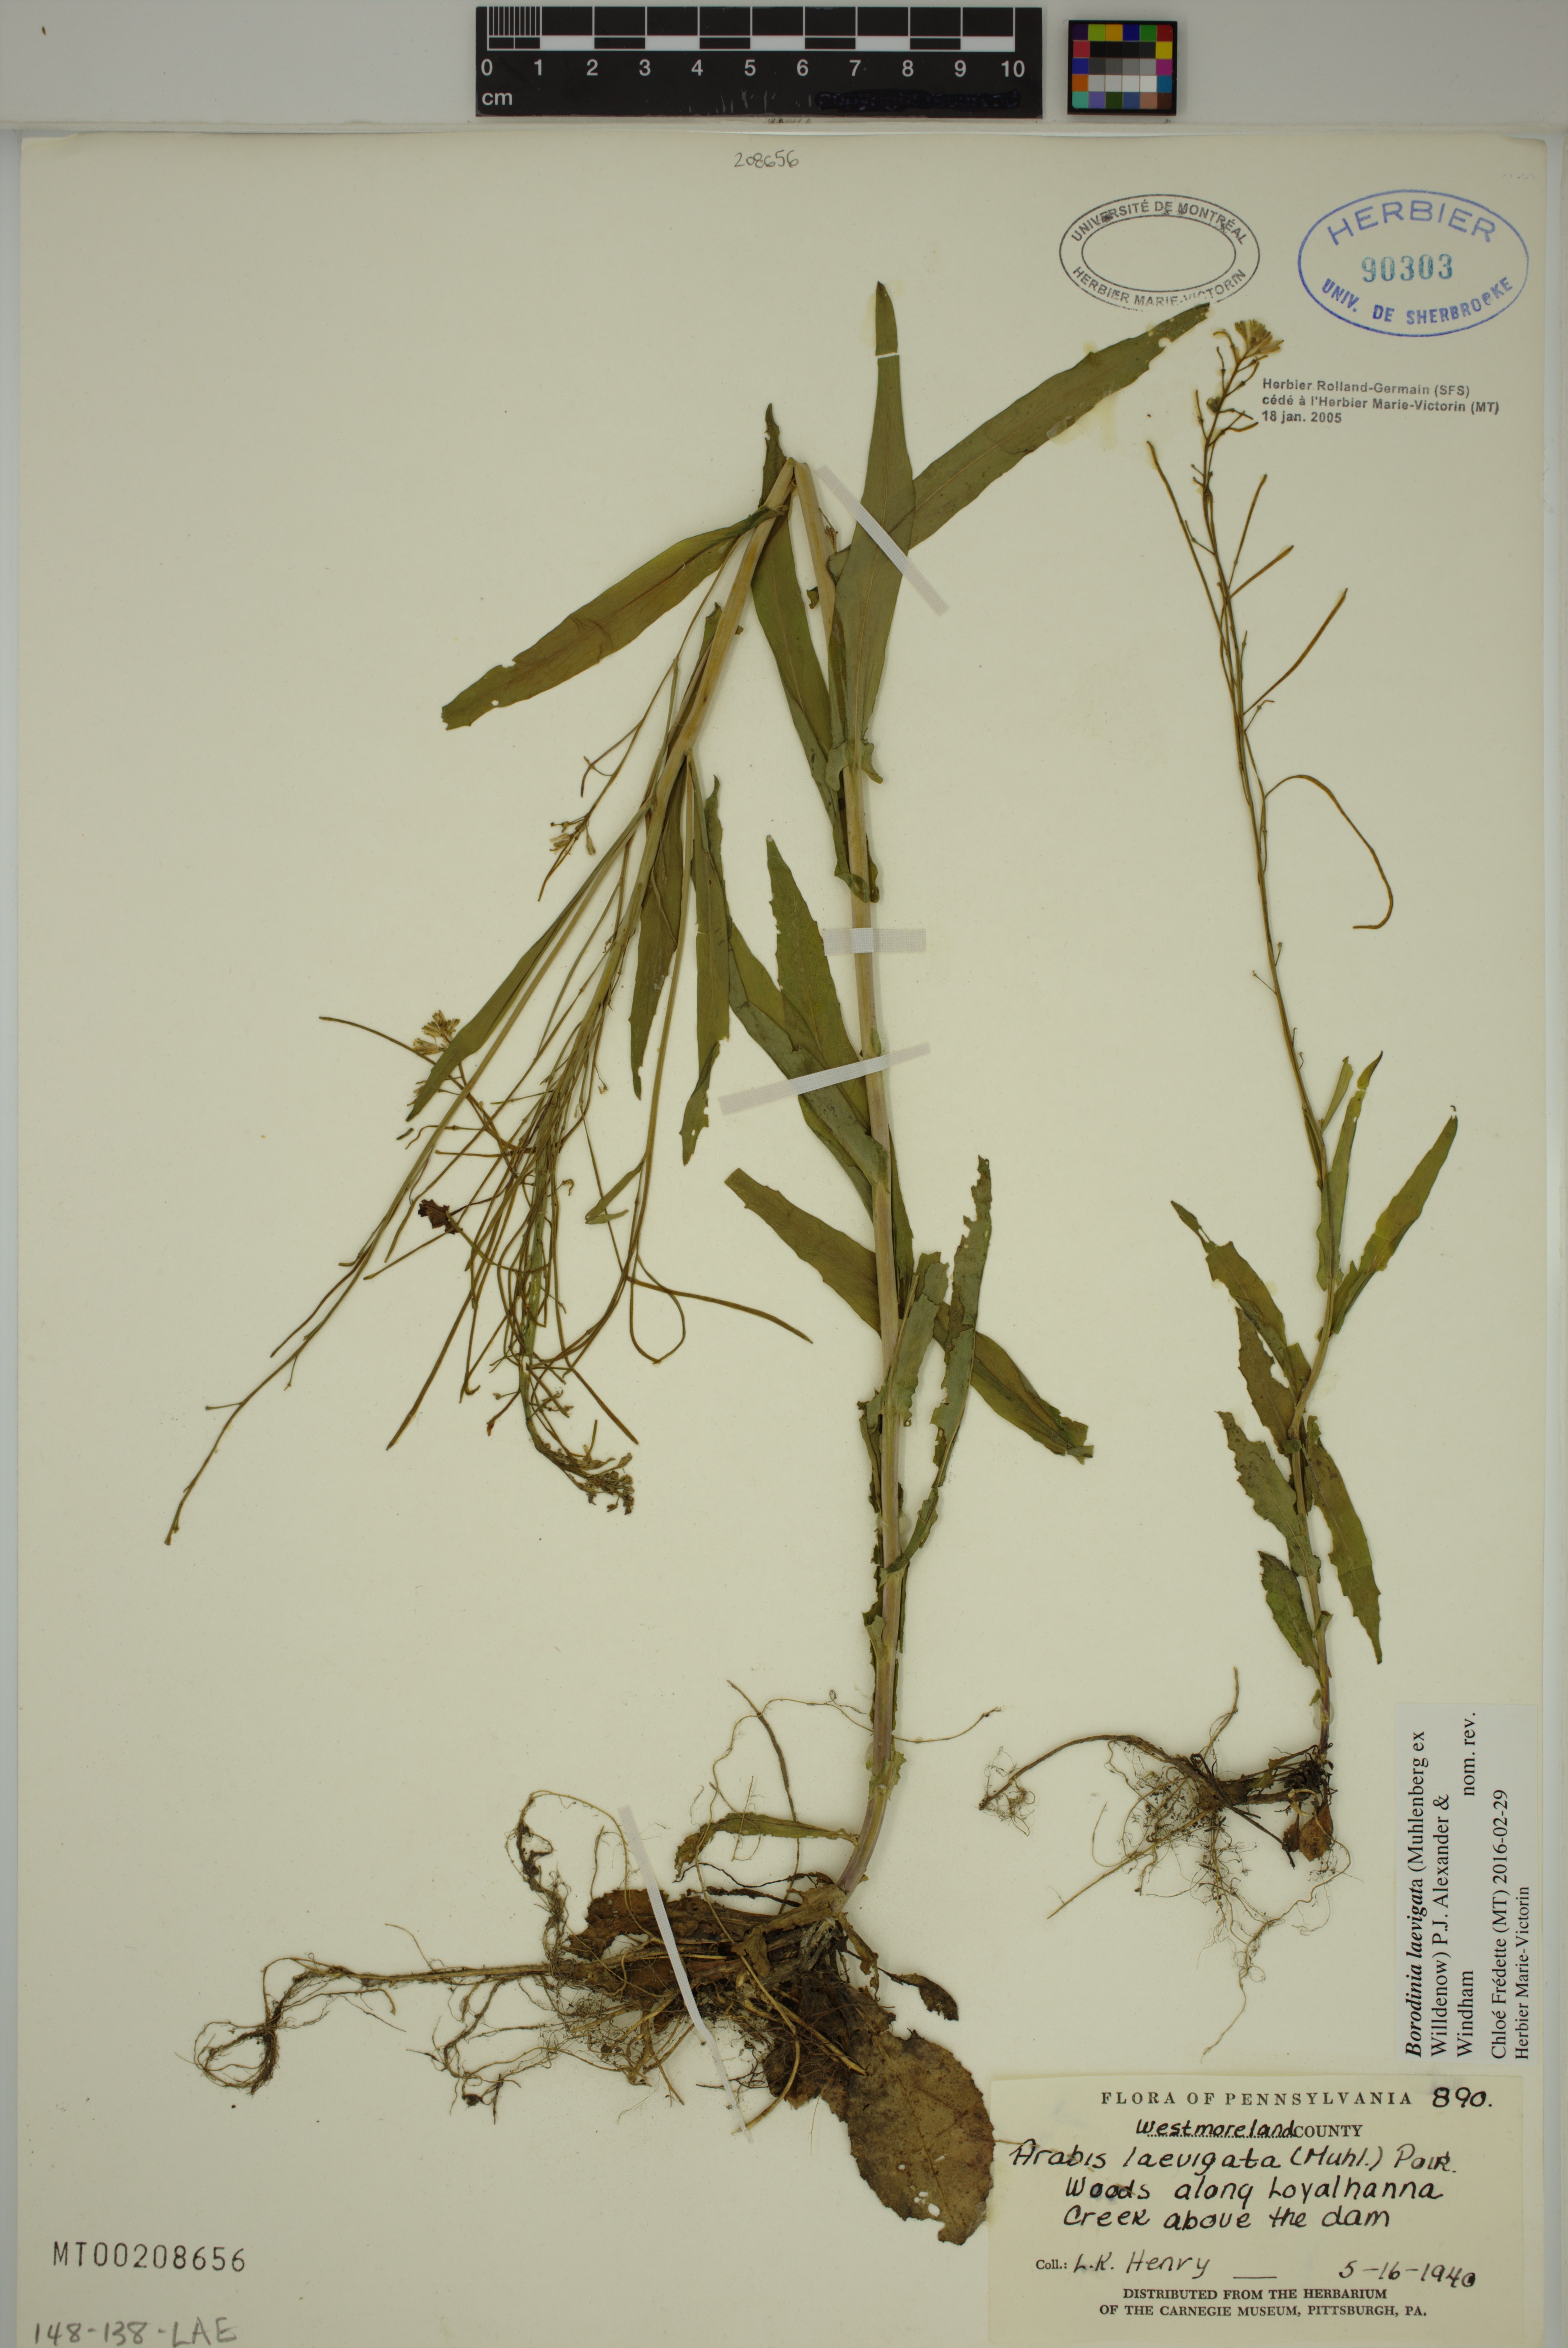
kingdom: Plantae
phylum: Tracheophyta
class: Magnoliopsida
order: Brassicales
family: Brassicaceae
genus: Borodinia
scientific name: Borodinia laevigata
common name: Smooth rockcress
